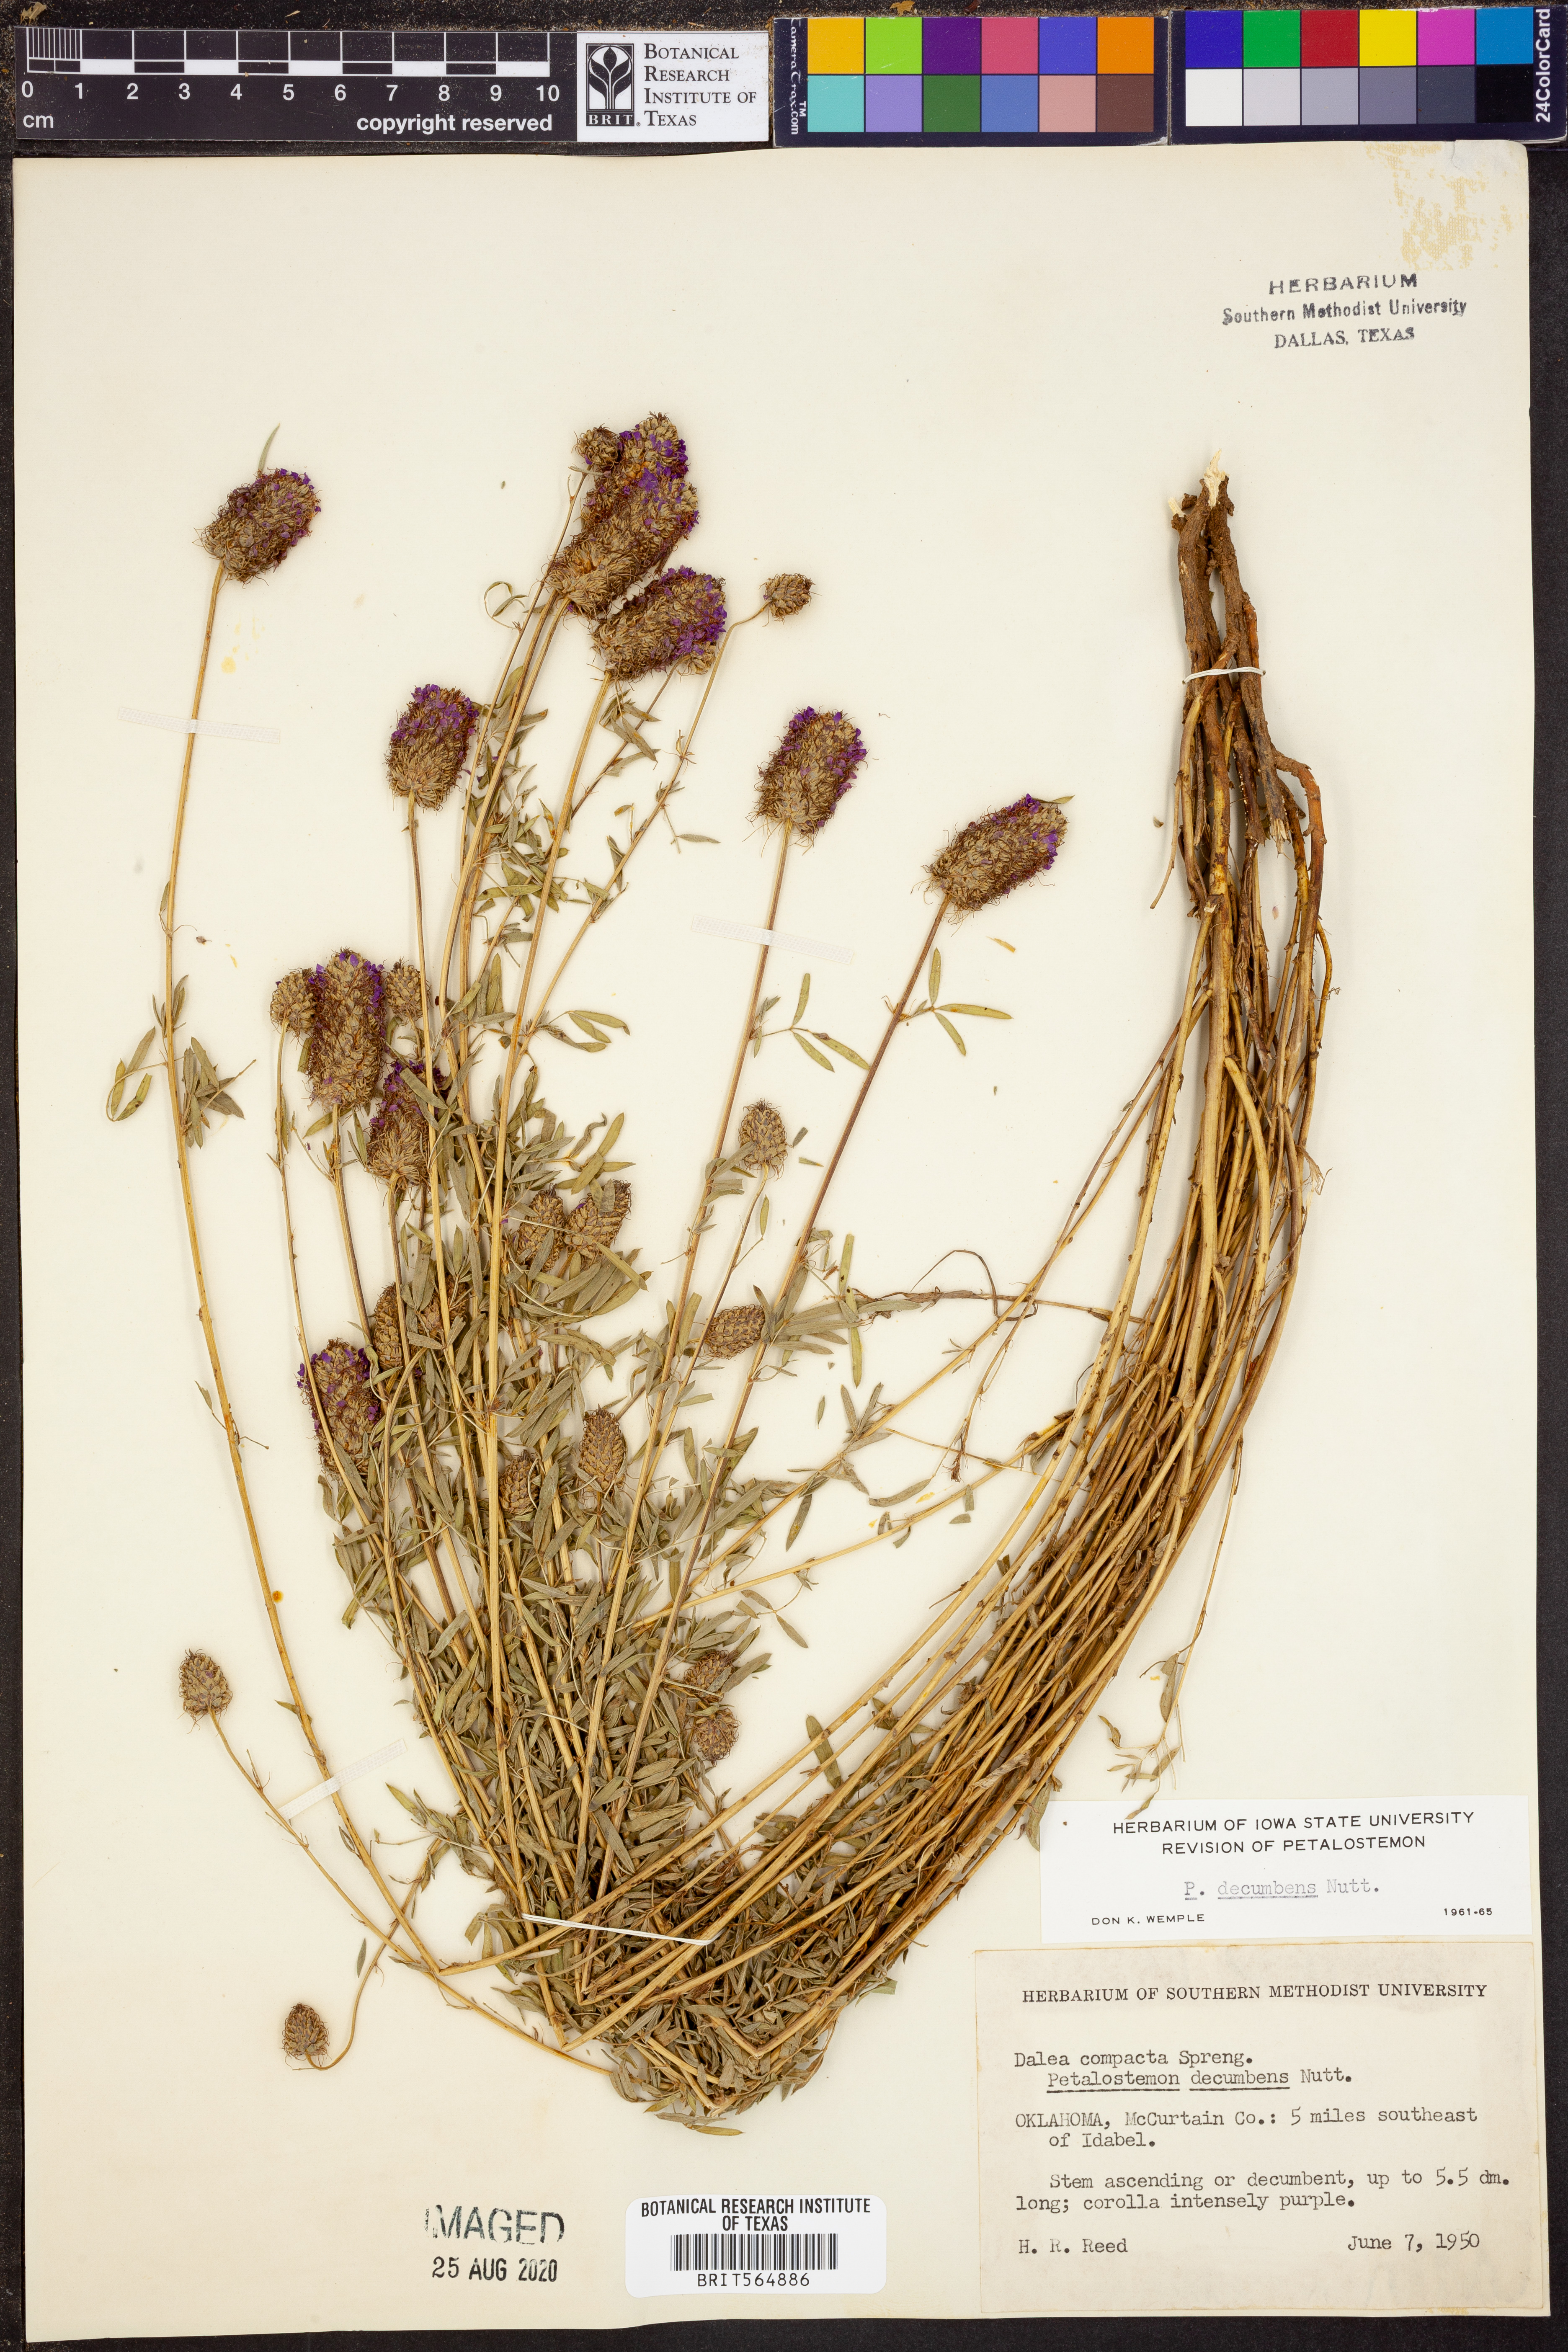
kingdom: Plantae
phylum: Tracheophyta
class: Magnoliopsida
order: Fabales
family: Fabaceae
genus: Dalea
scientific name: Dalea compacta
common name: Compact prairie-clover
